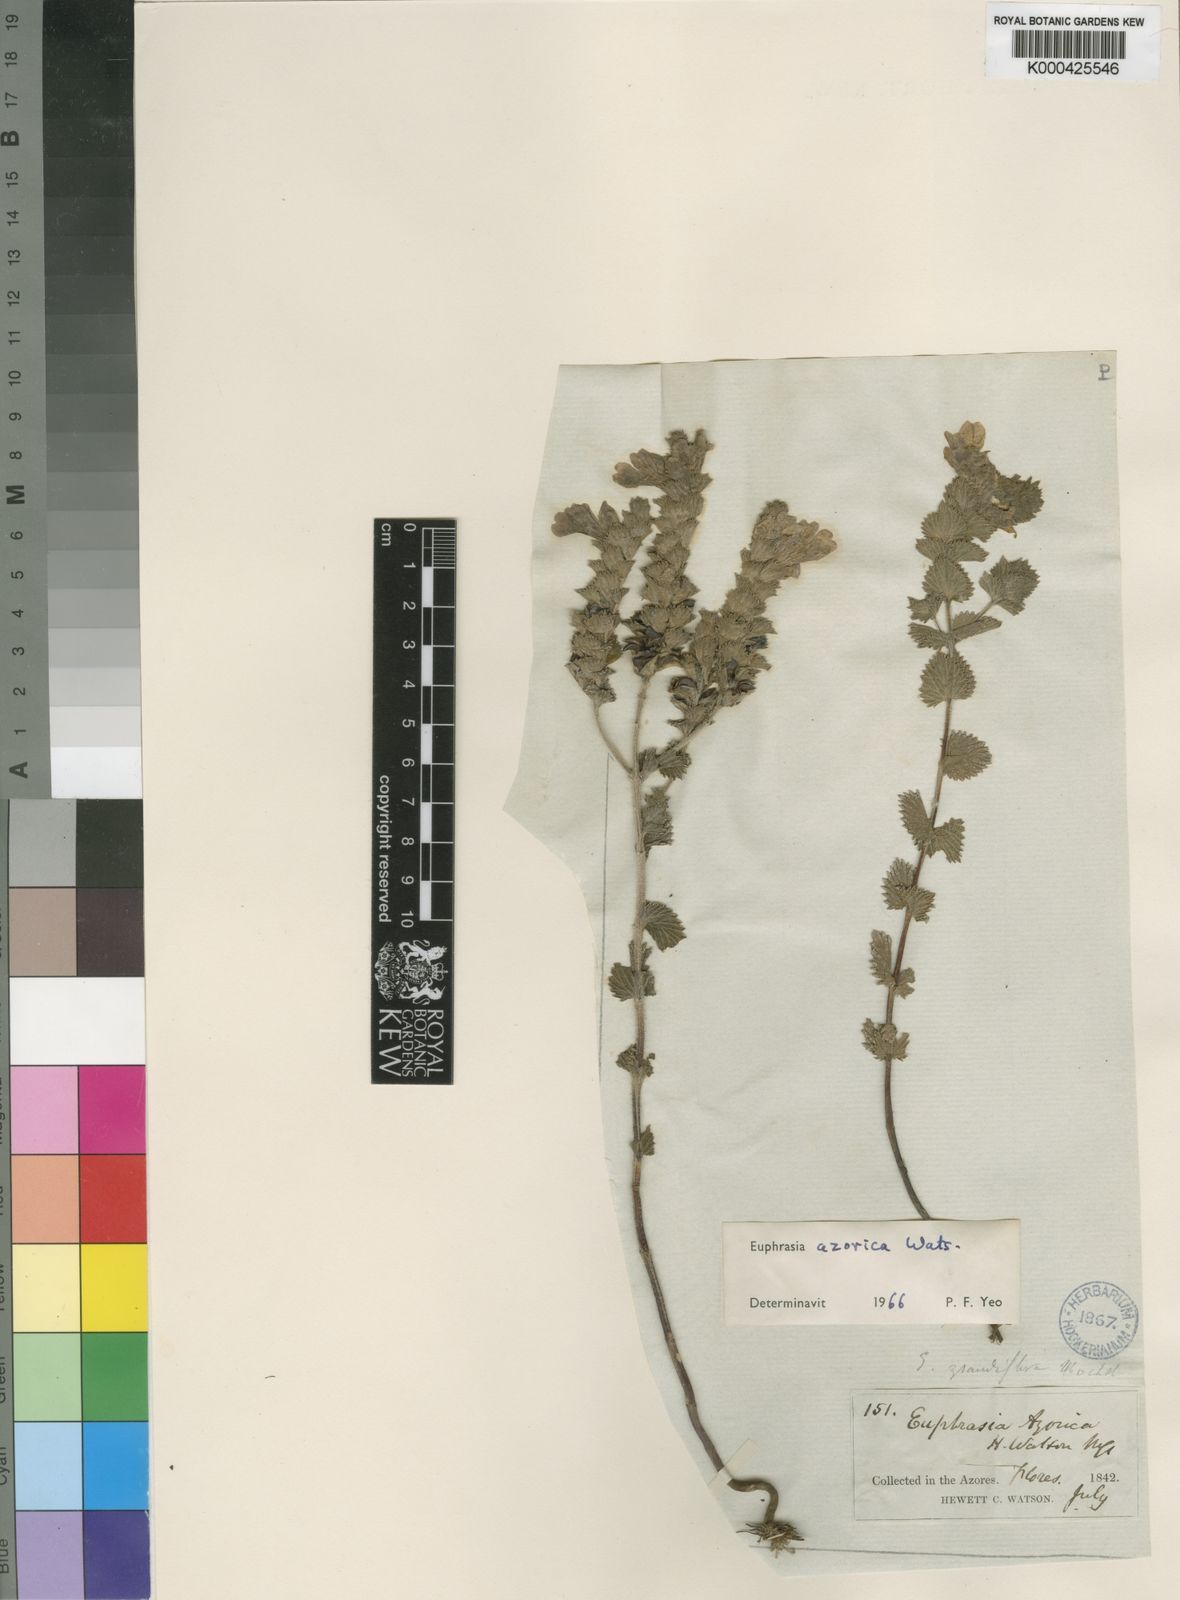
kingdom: Plantae
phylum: Tracheophyta
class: Magnoliopsida
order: Lamiales
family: Orobanchaceae
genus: Euphrasia
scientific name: Euphrasia azorica
